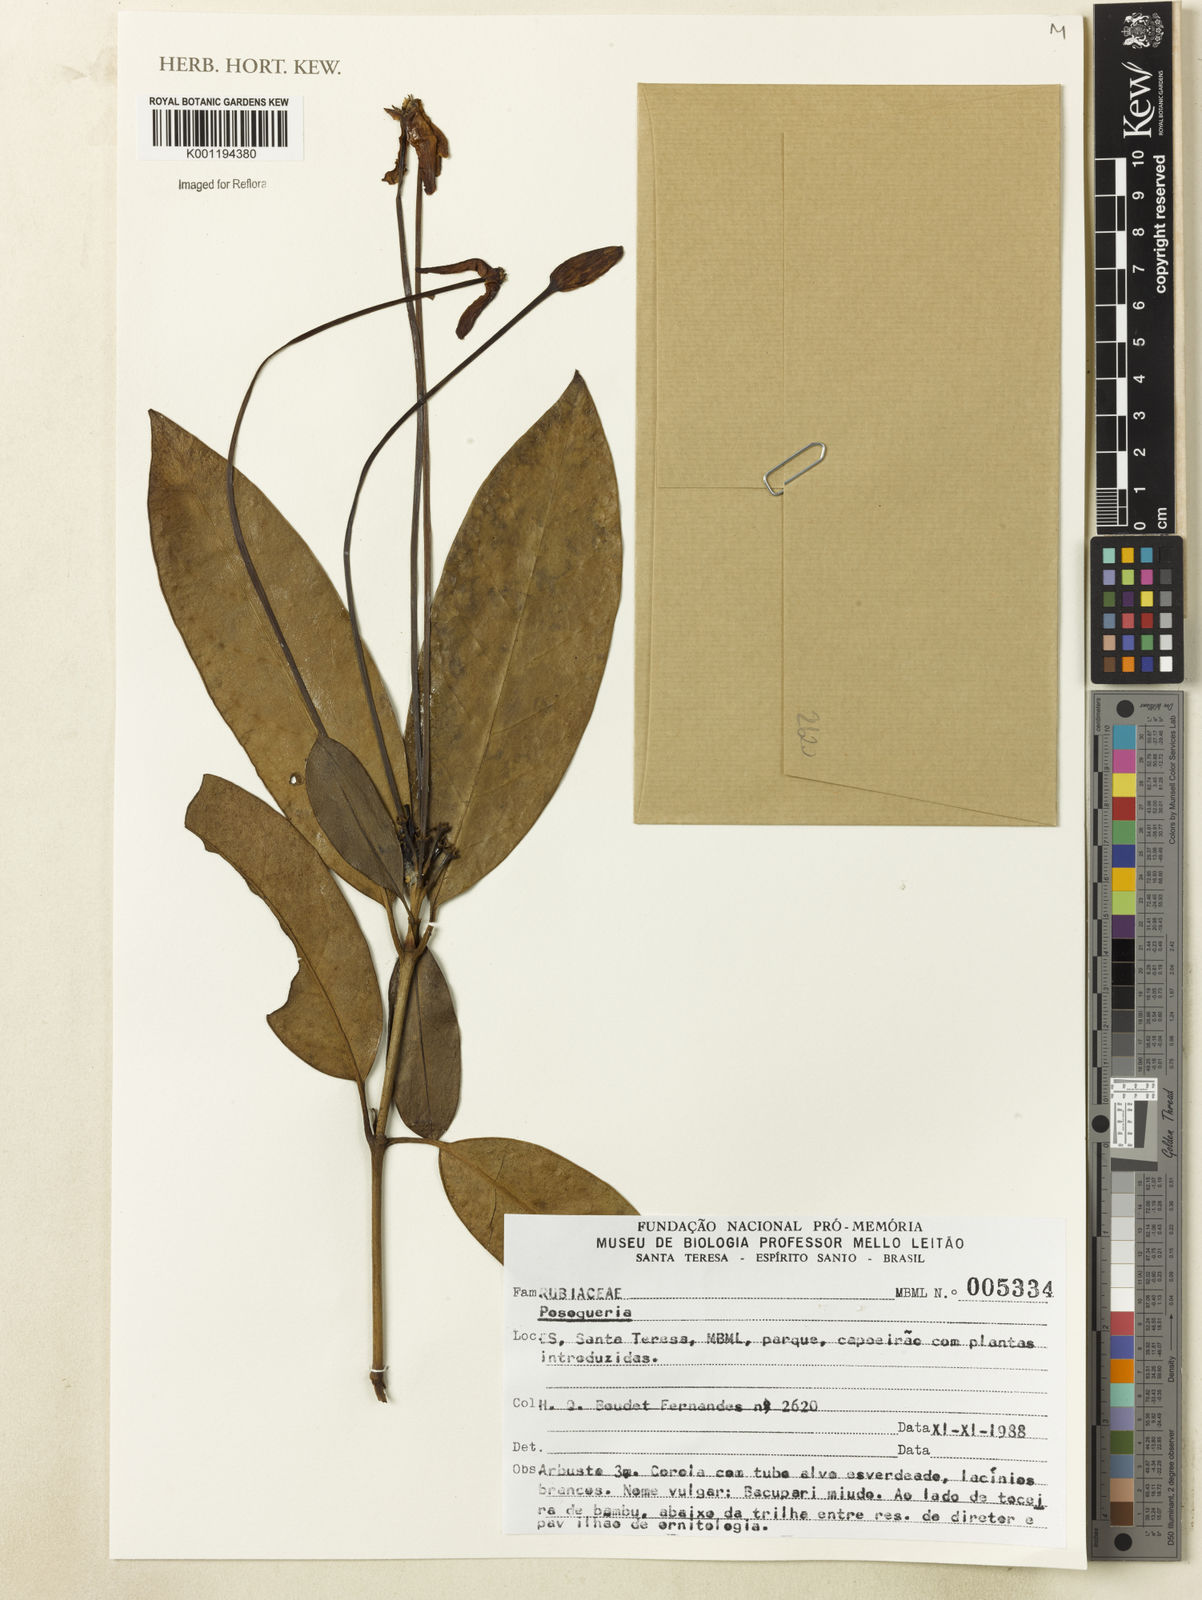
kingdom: Plantae
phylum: Tracheophyta
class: Magnoliopsida
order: Gentianales
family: Rubiaceae
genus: Posoqueria
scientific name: Posoqueria
